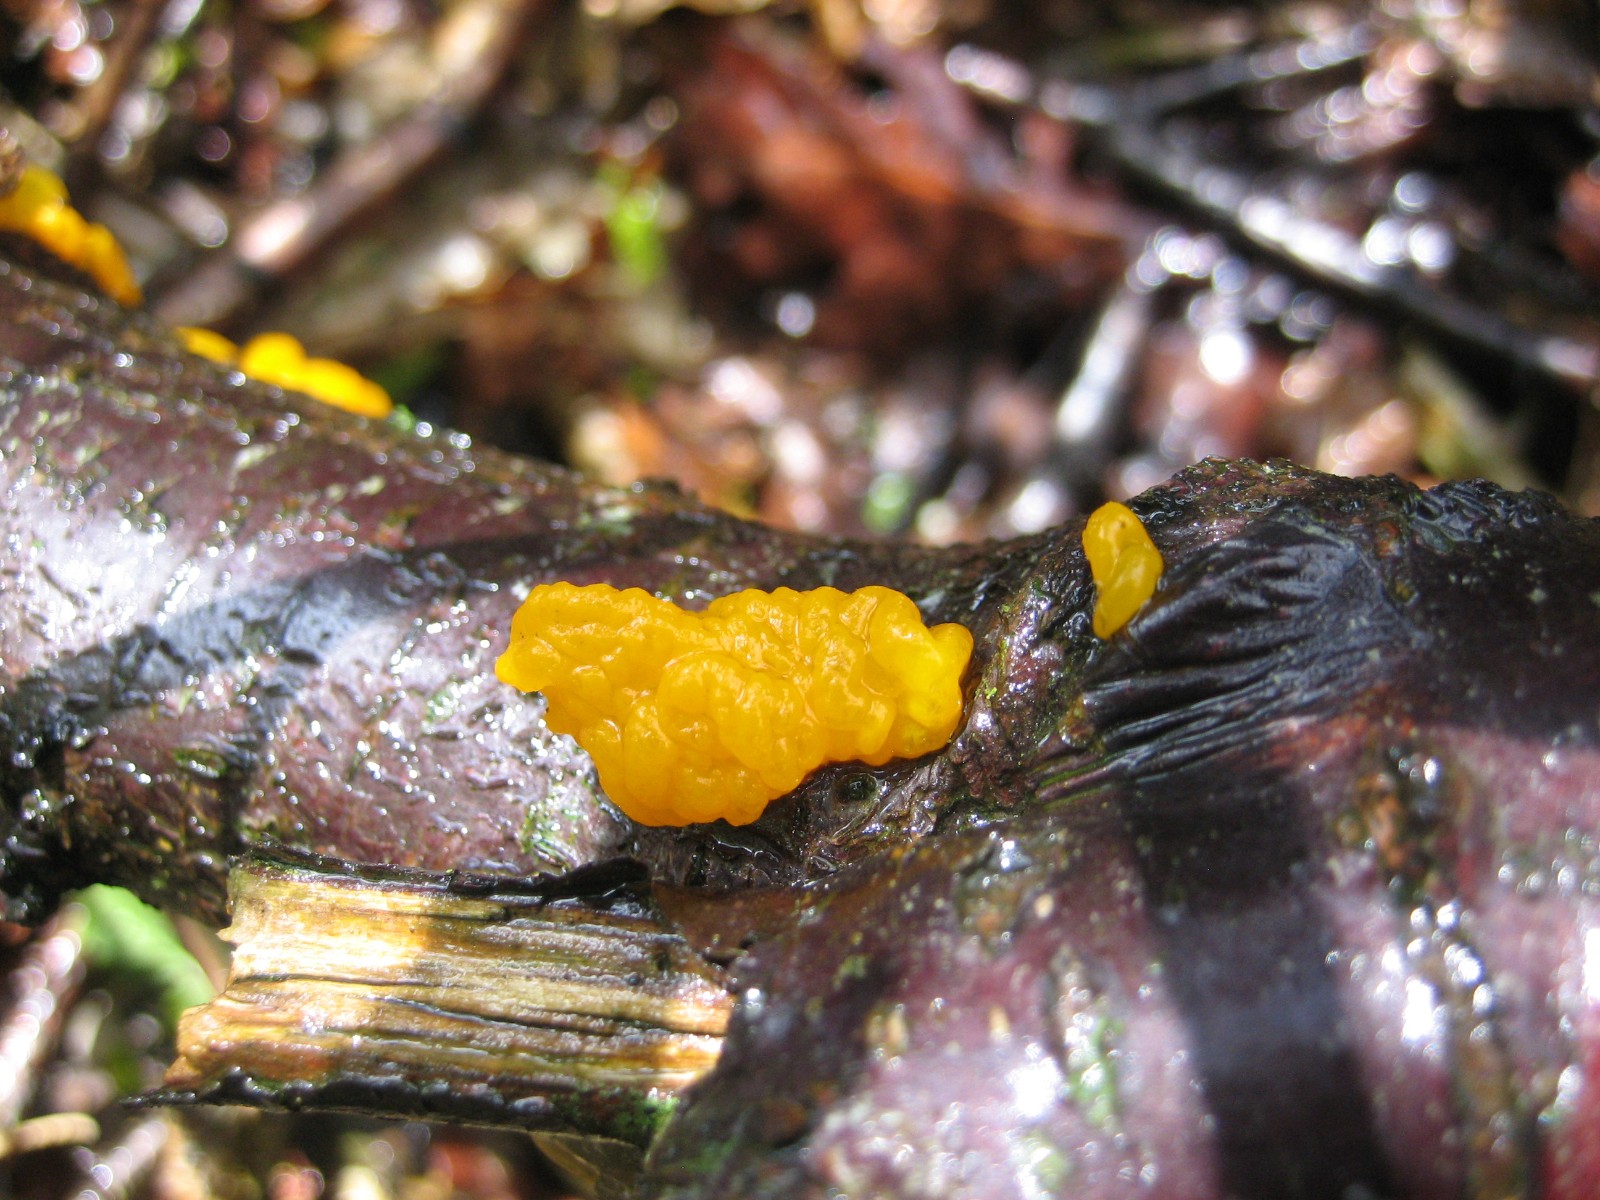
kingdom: Fungi
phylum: Basidiomycota
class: Tremellomycetes
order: Tremellales
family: Tremellaceae
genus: Tremella
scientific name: Tremella mesenterica
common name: gul bævresvamp
